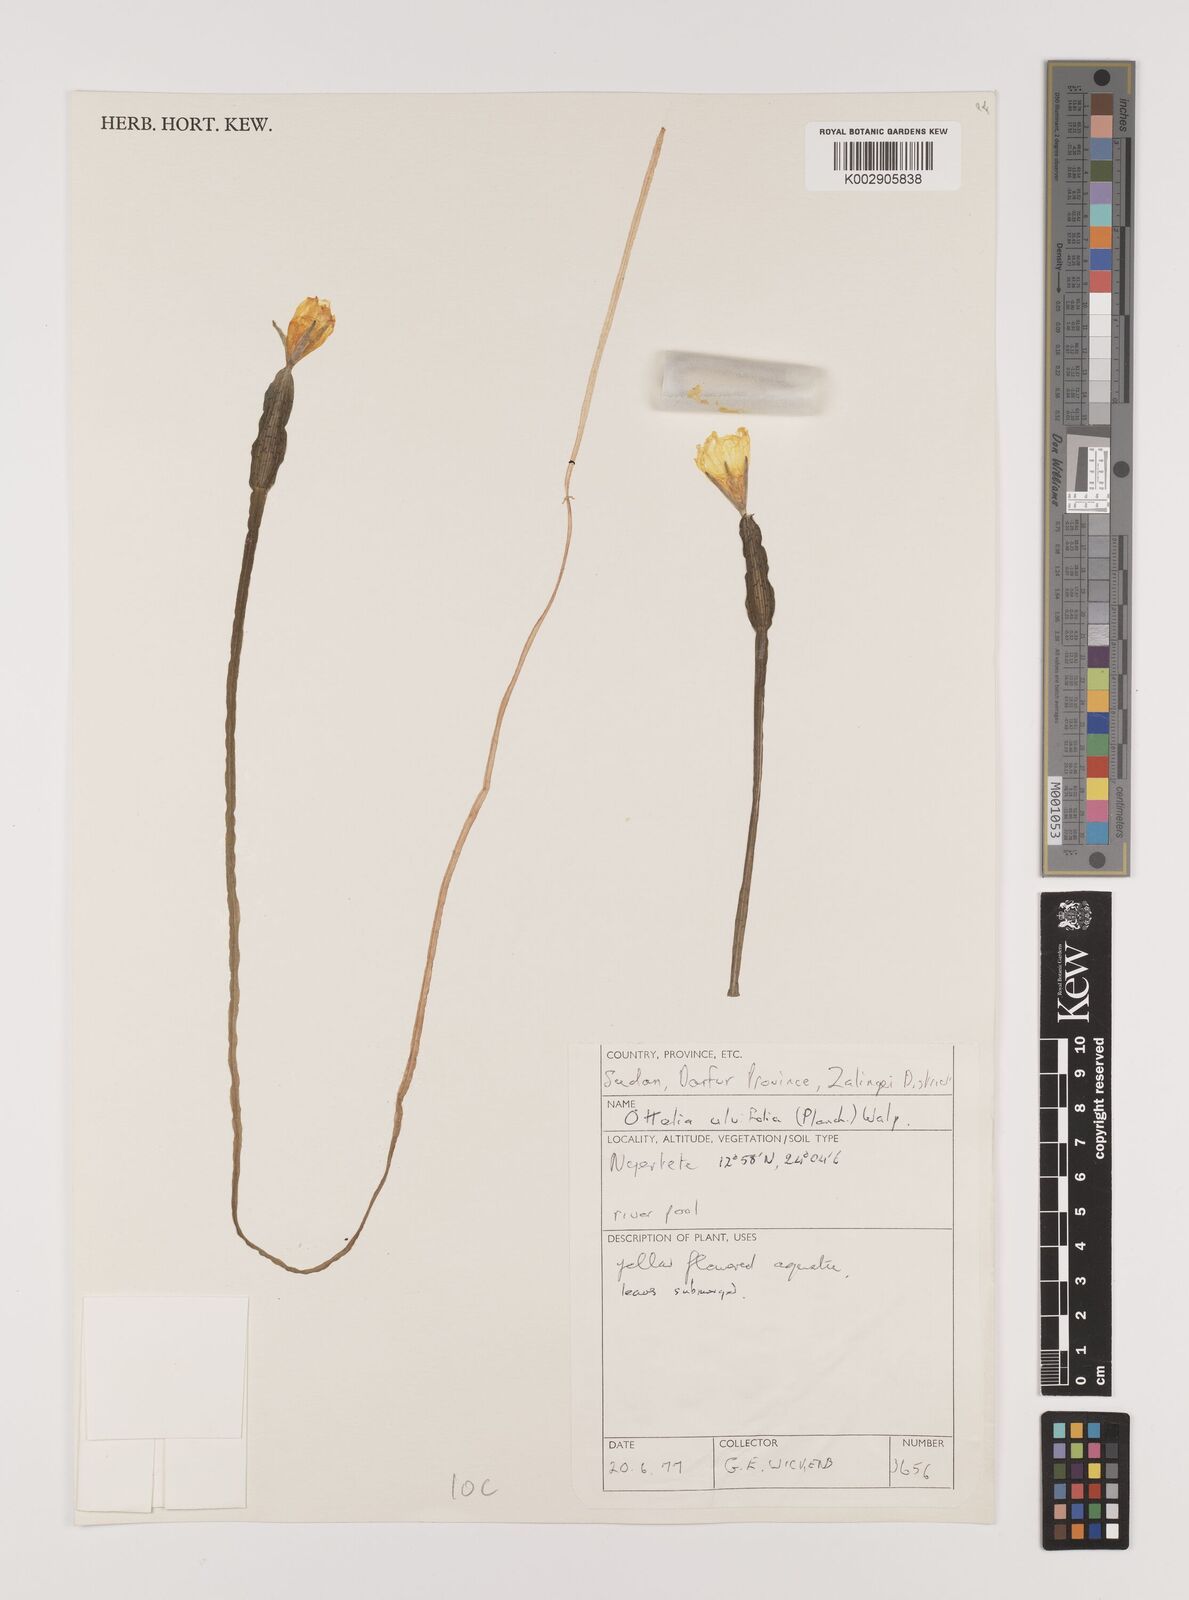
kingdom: Plantae
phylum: Tracheophyta
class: Liliopsida
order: Alismatales
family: Hydrocharitaceae
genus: Ottelia
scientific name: Ottelia ulvifolia
